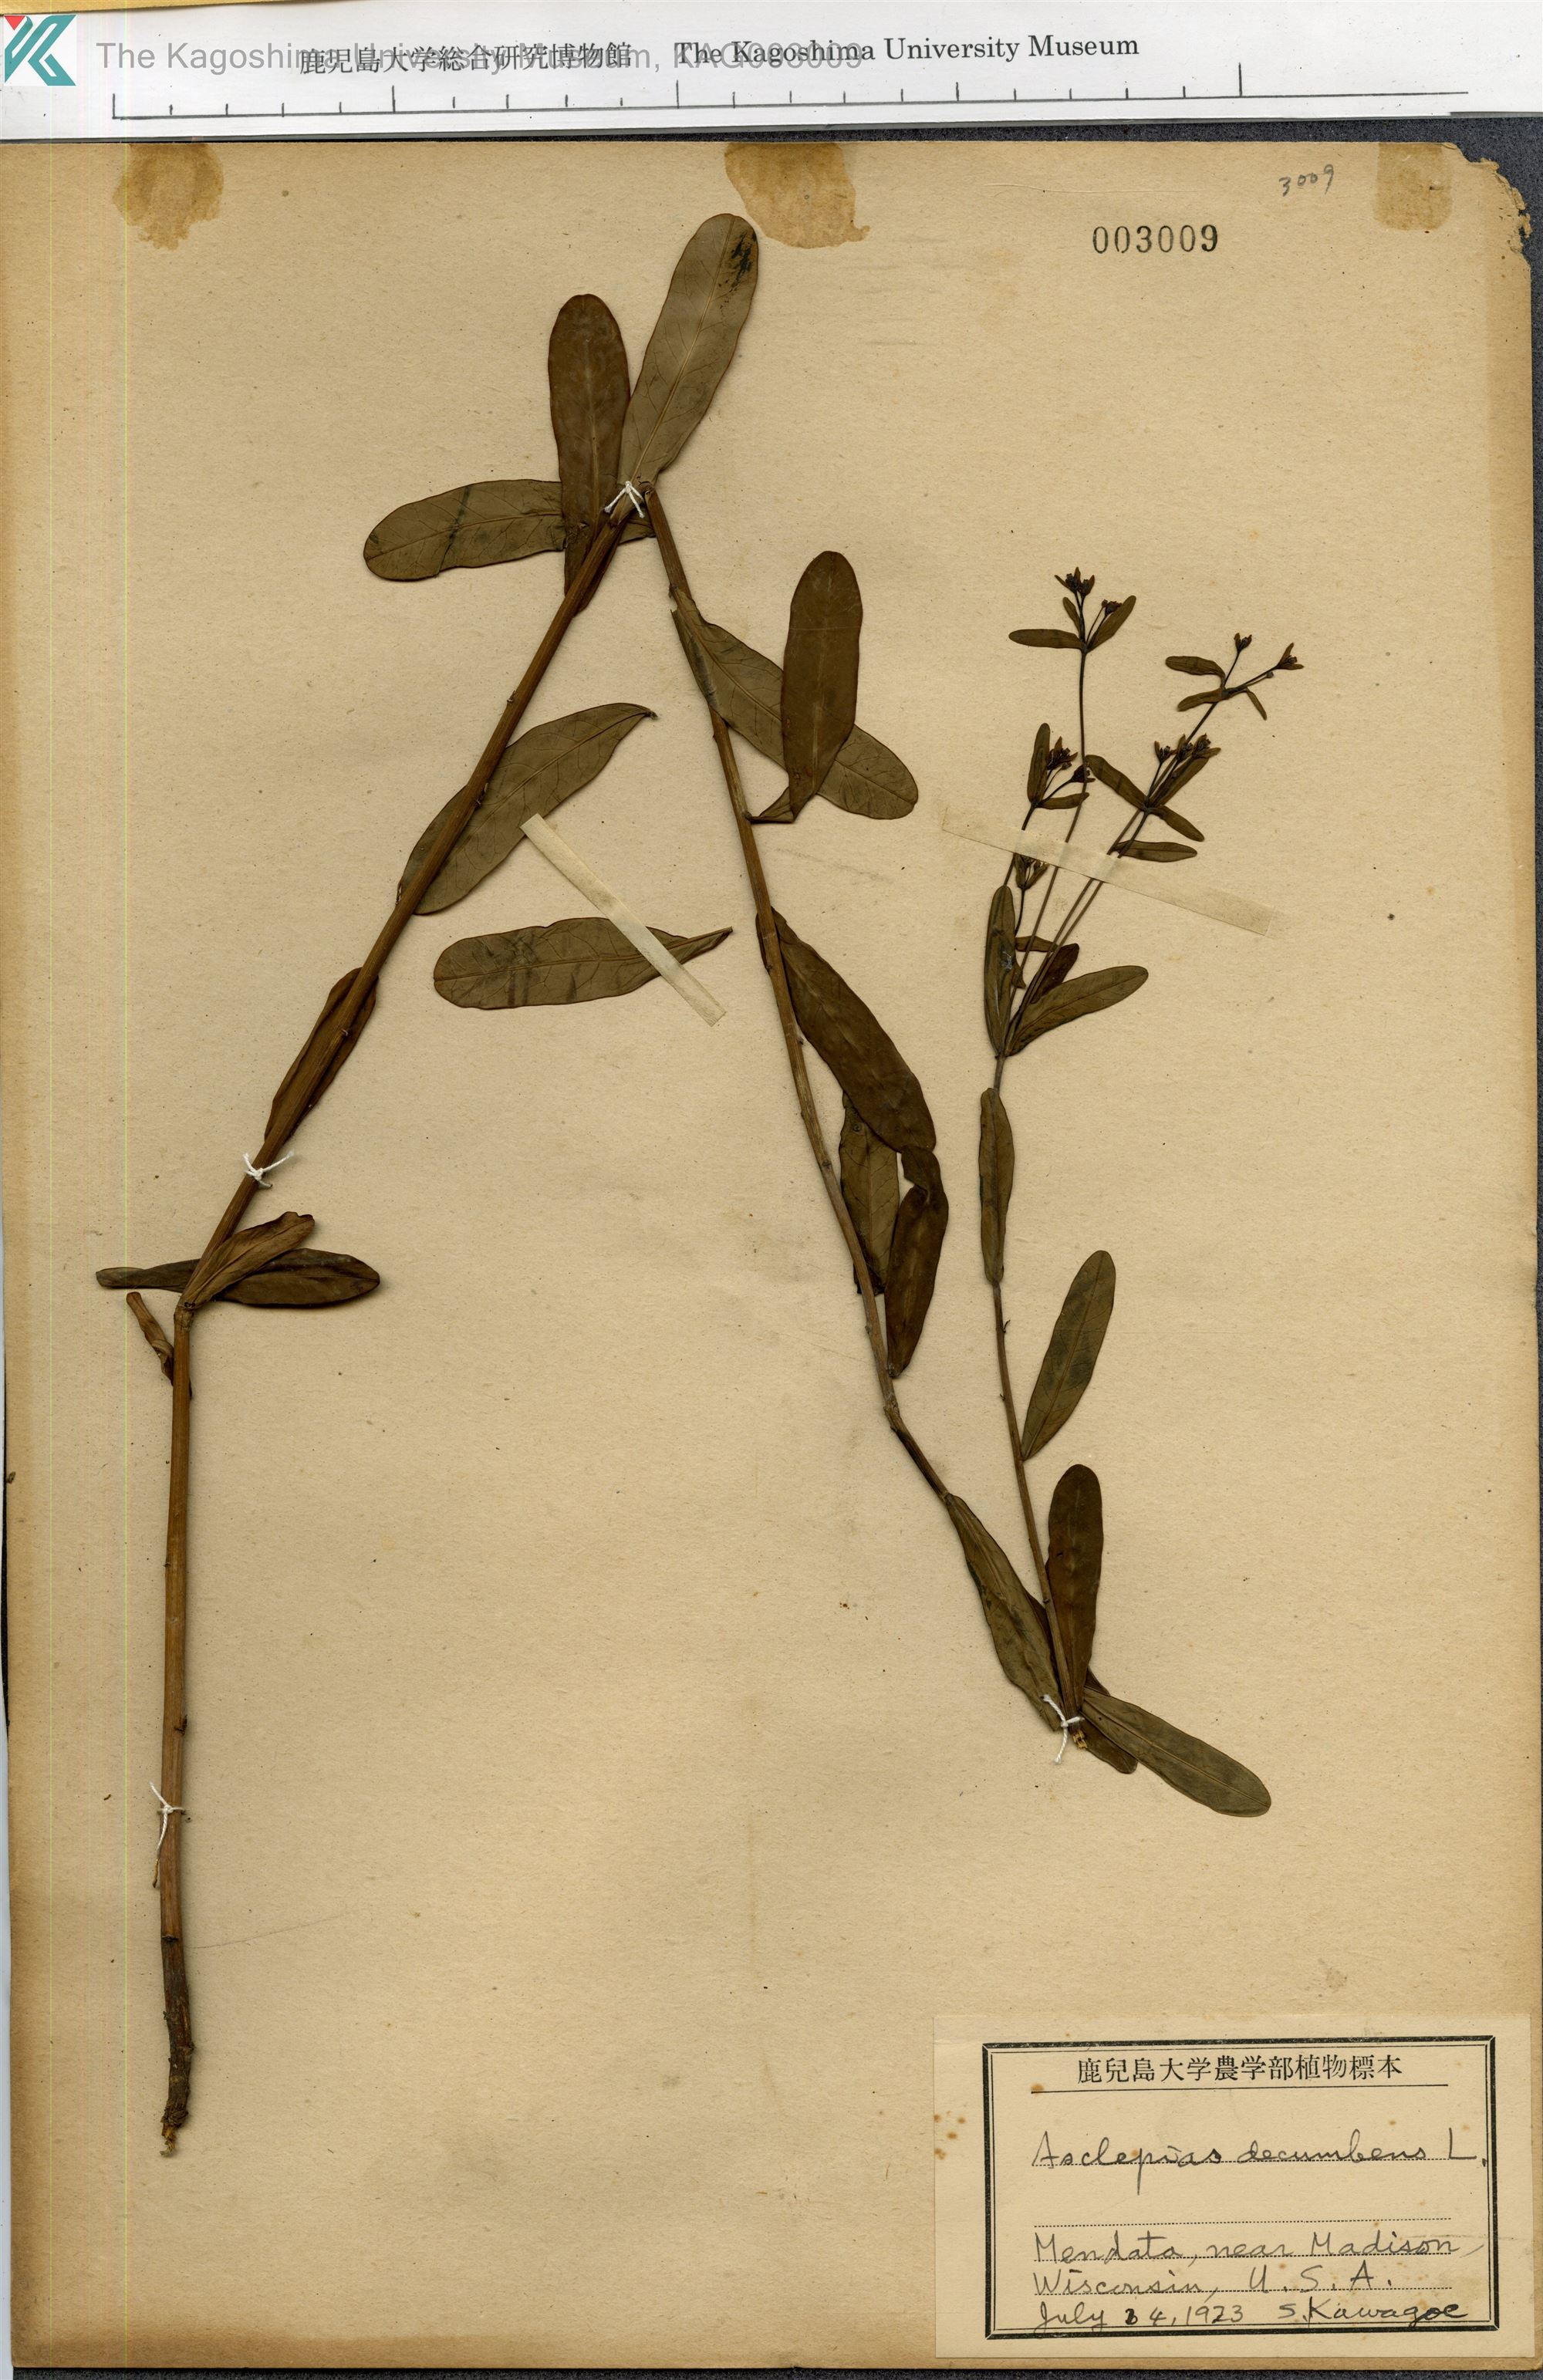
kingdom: Plantae
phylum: Tracheophyta
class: Magnoliopsida
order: Gentianales
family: Apocynaceae
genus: Asclepias
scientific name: Asclepias tuberosa
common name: Butterfly milkweed
